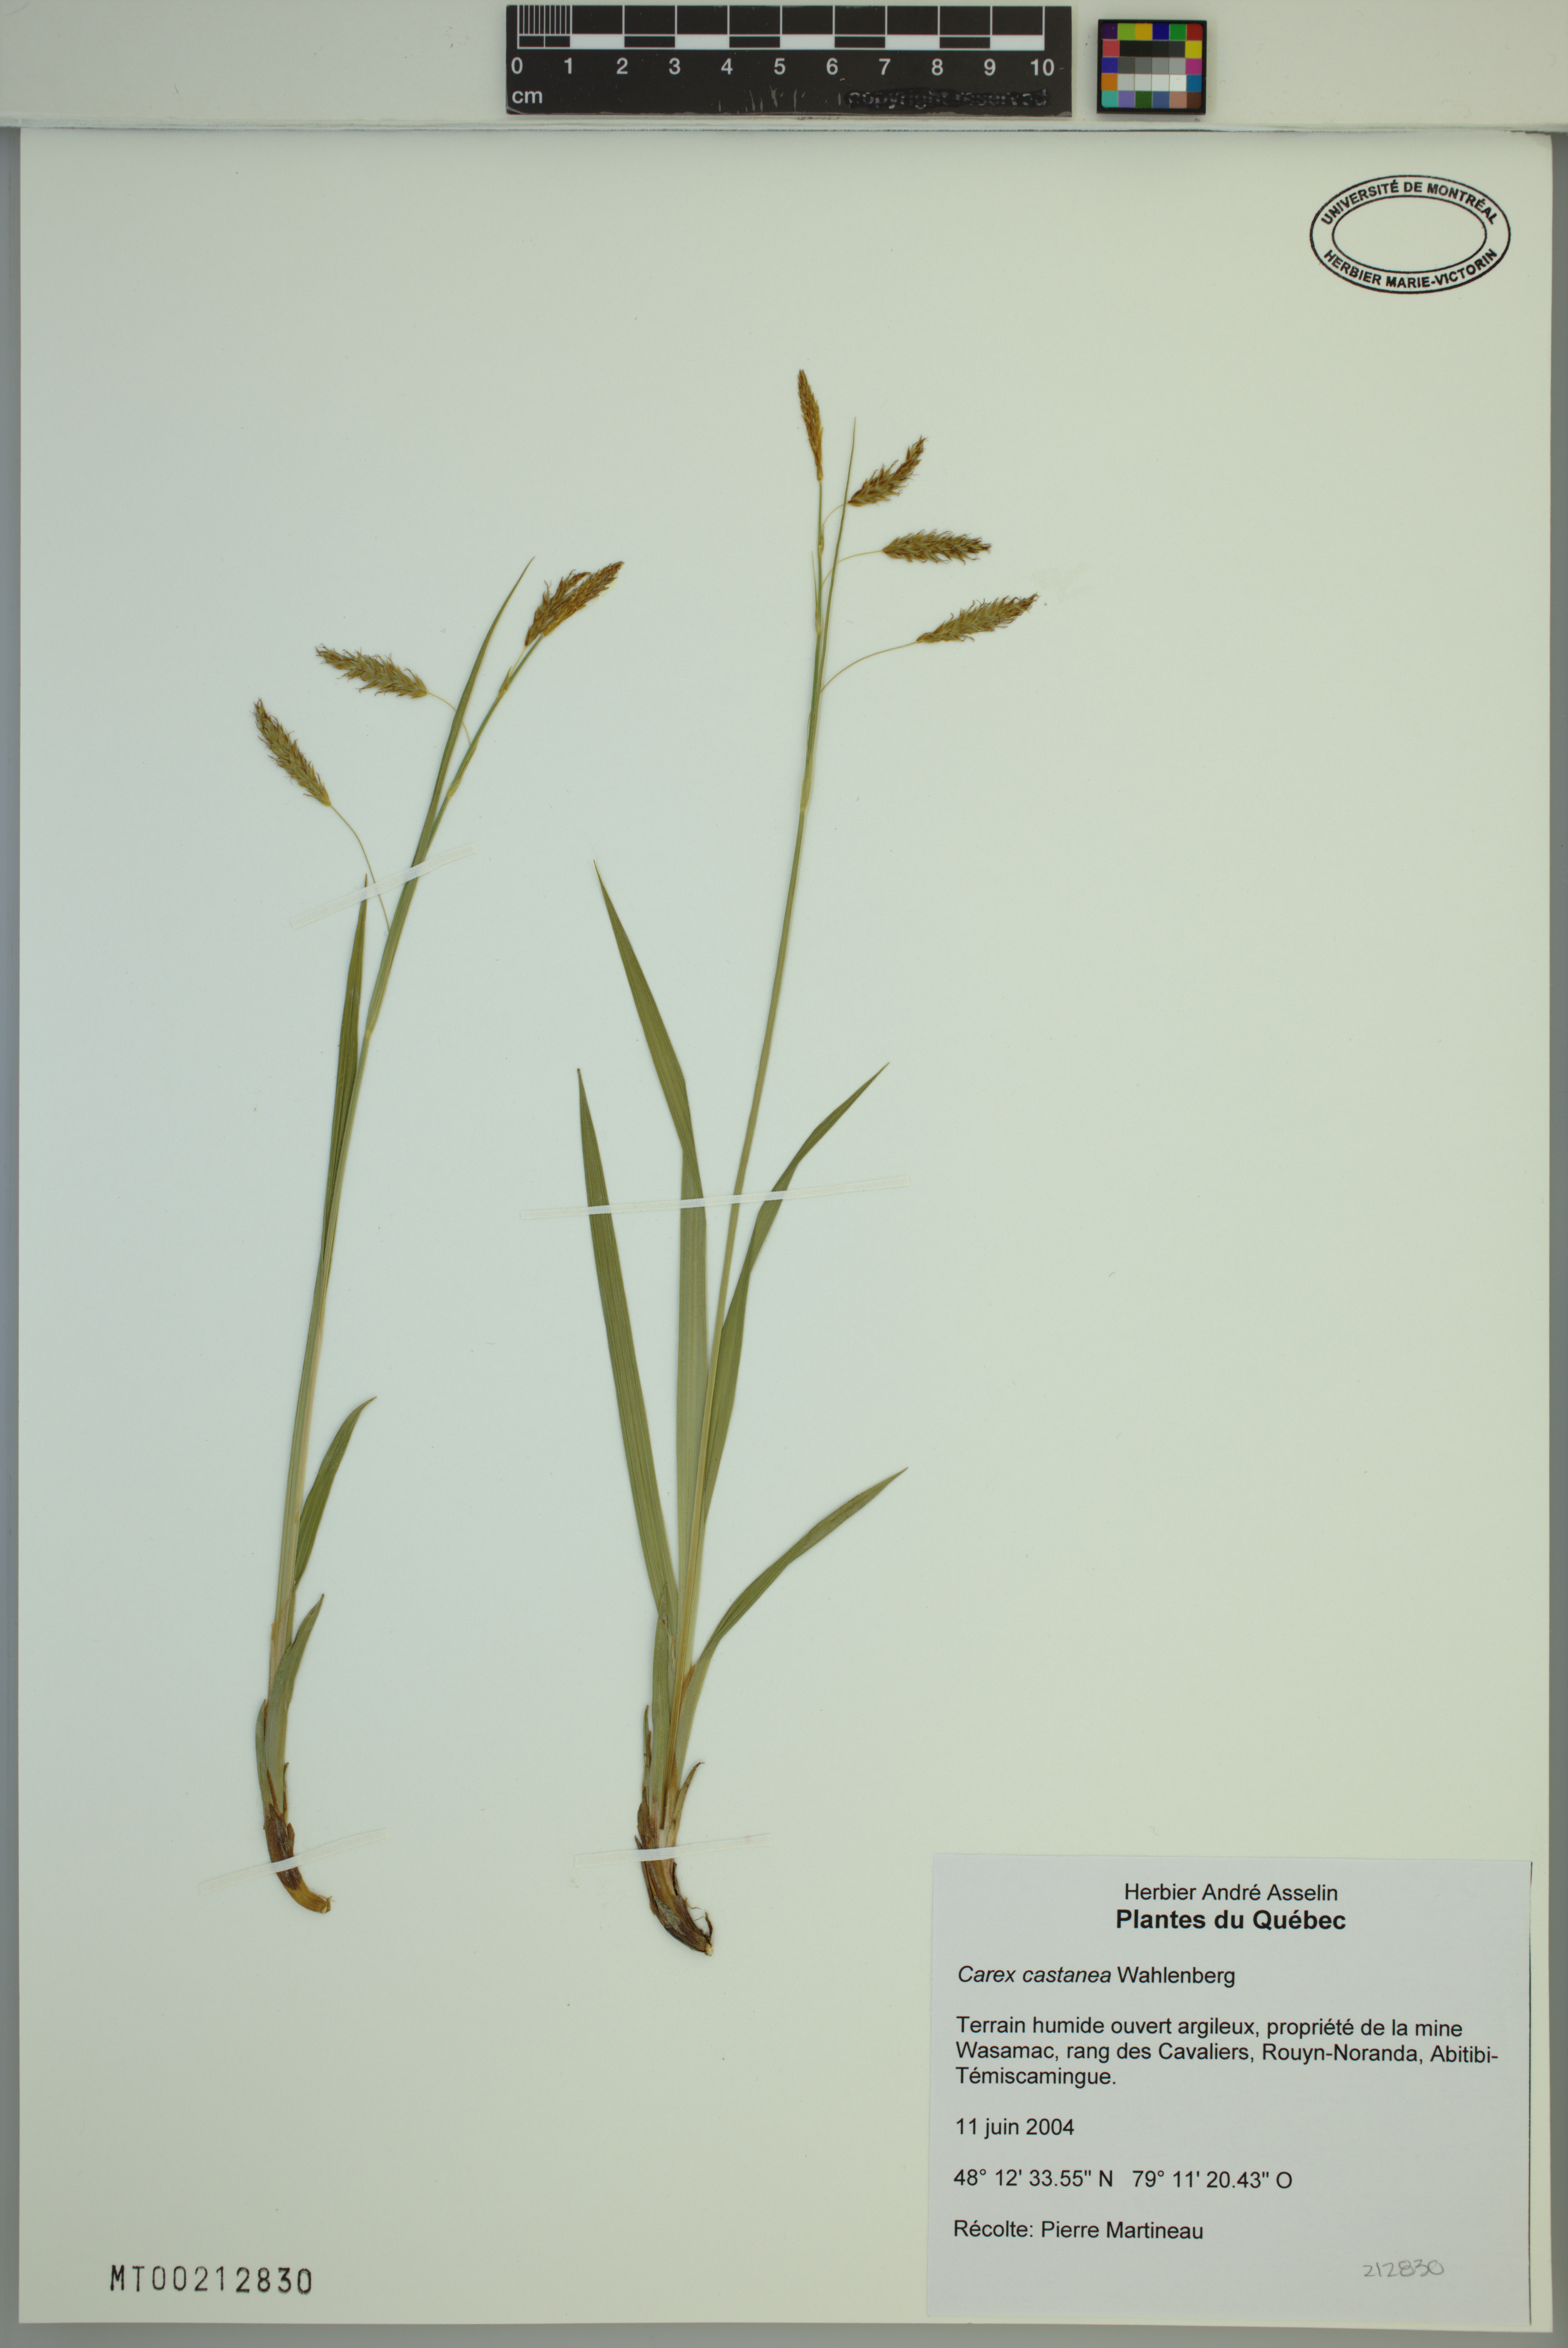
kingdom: Plantae
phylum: Tracheophyta
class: Liliopsida
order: Poales
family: Cyperaceae
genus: Carex
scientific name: Carex castanea
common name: Chestnut sedge
